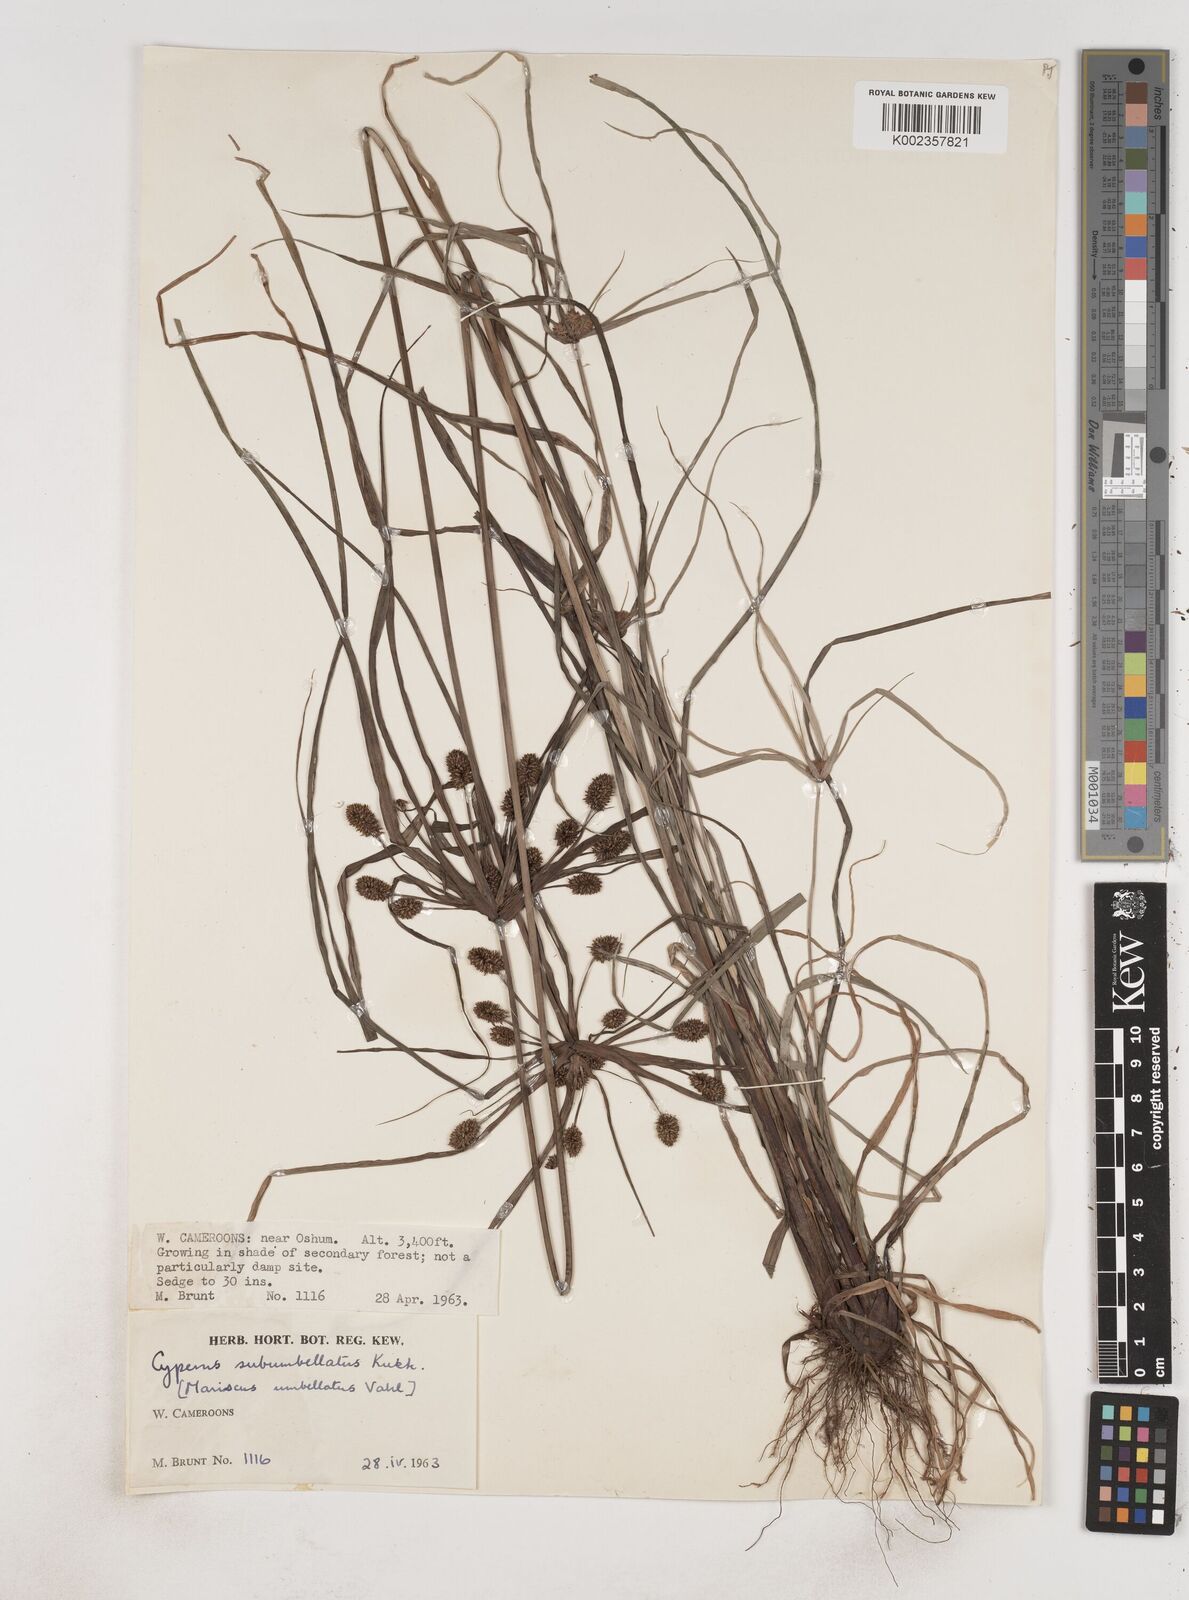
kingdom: Plantae
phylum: Tracheophyta
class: Liliopsida
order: Poales
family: Cyperaceae
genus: Cyperus
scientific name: Cyperus sublimis
